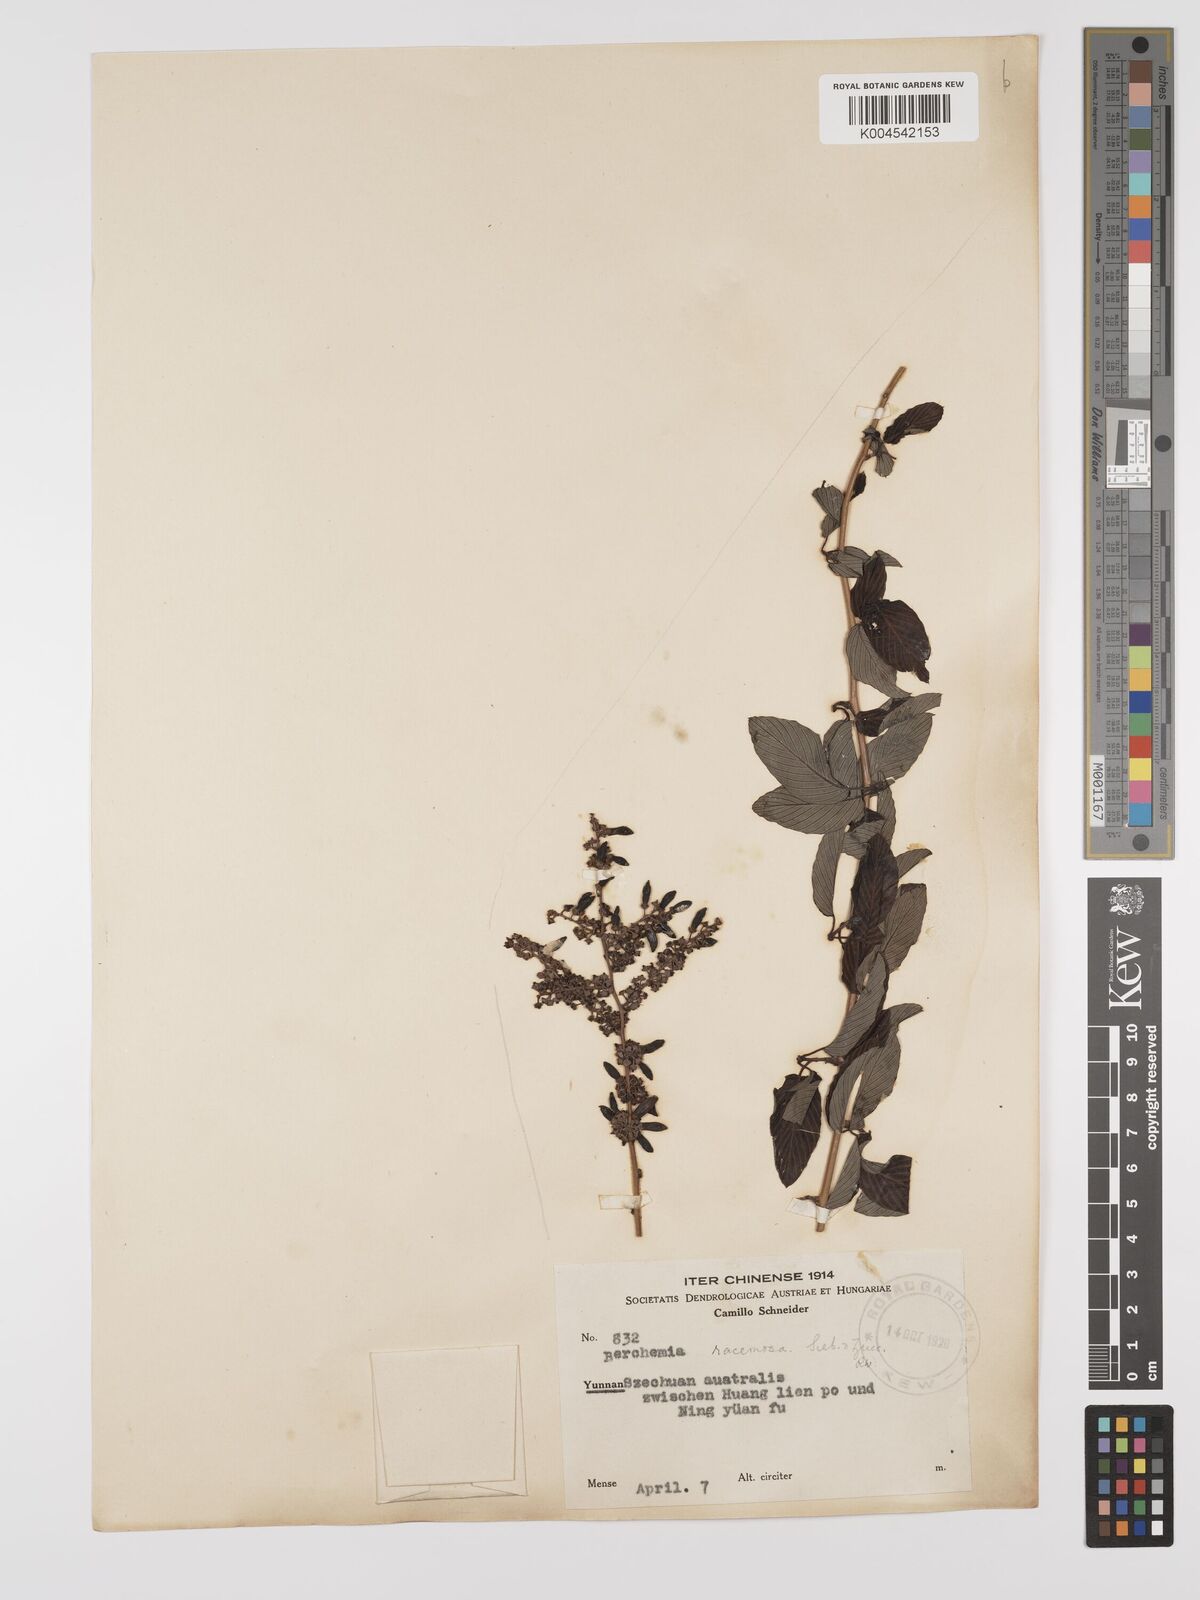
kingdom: Plantae
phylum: Tracheophyta
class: Magnoliopsida
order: Rosales
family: Rhamnaceae
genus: Berchemia
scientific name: Berchemia floribunda
